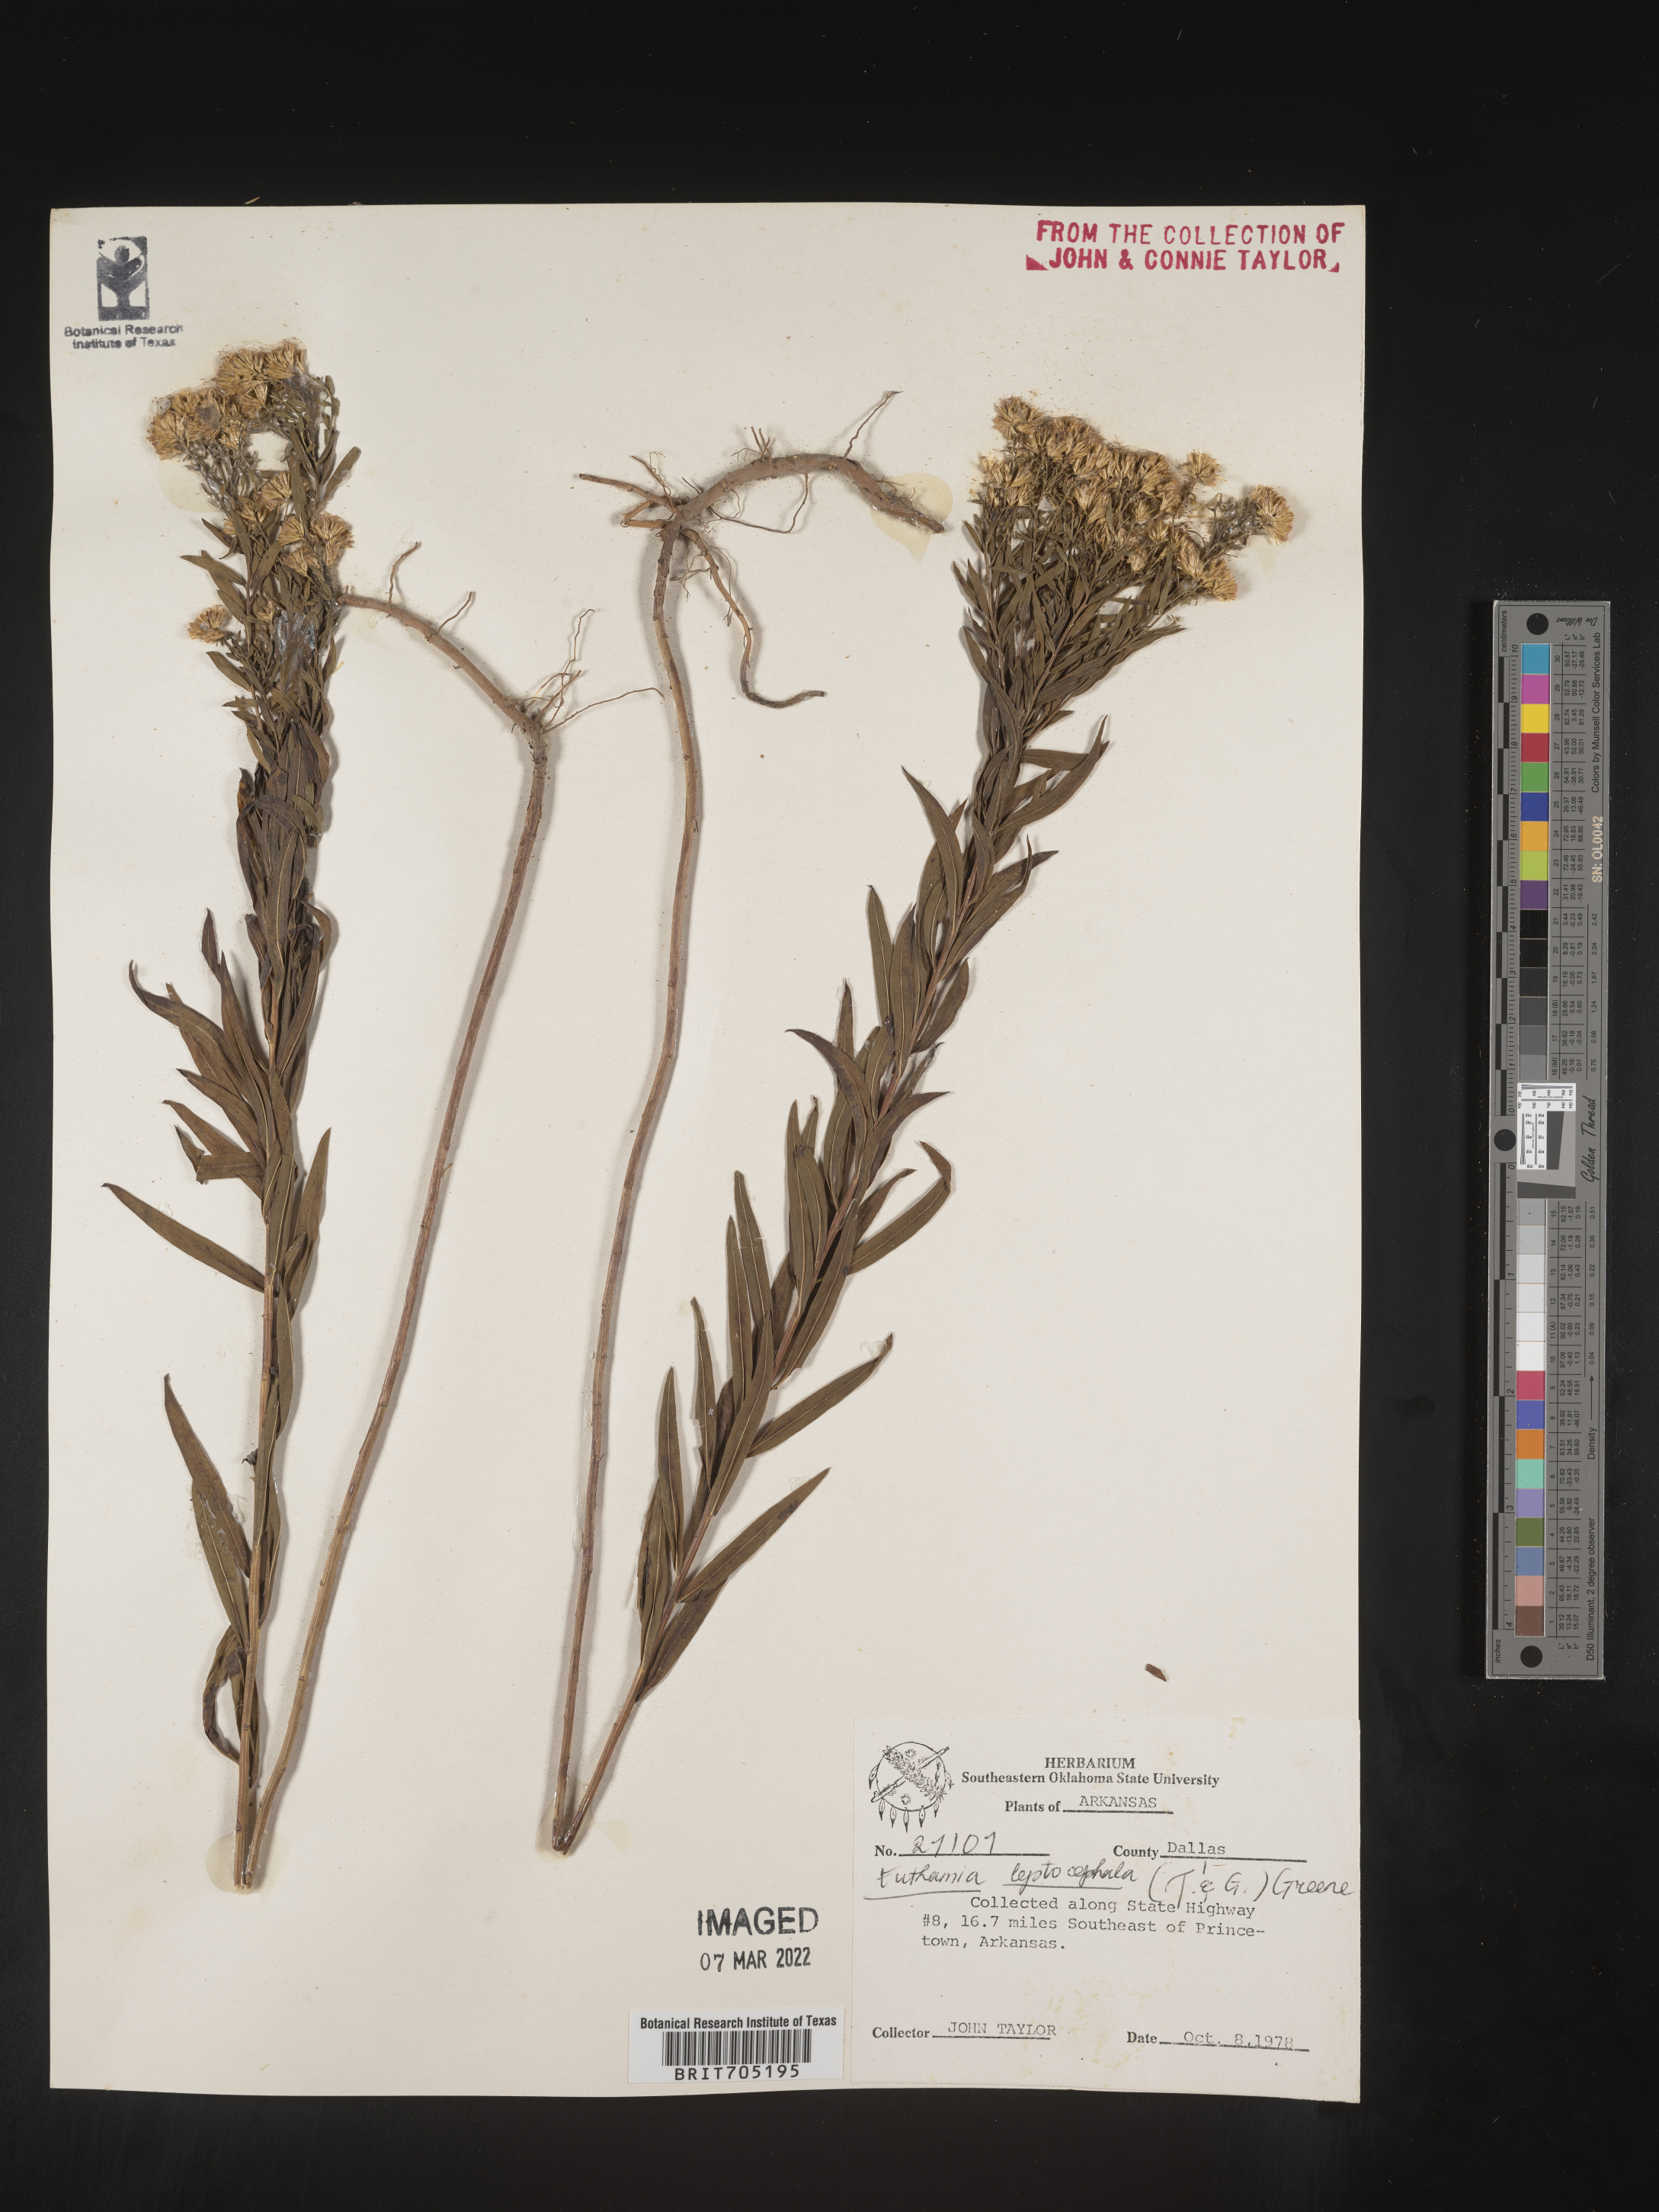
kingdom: Plantae
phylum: Tracheophyta
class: Magnoliopsida
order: Asterales
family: Asteraceae
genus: Euthamia
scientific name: Euthamia leptocephala
